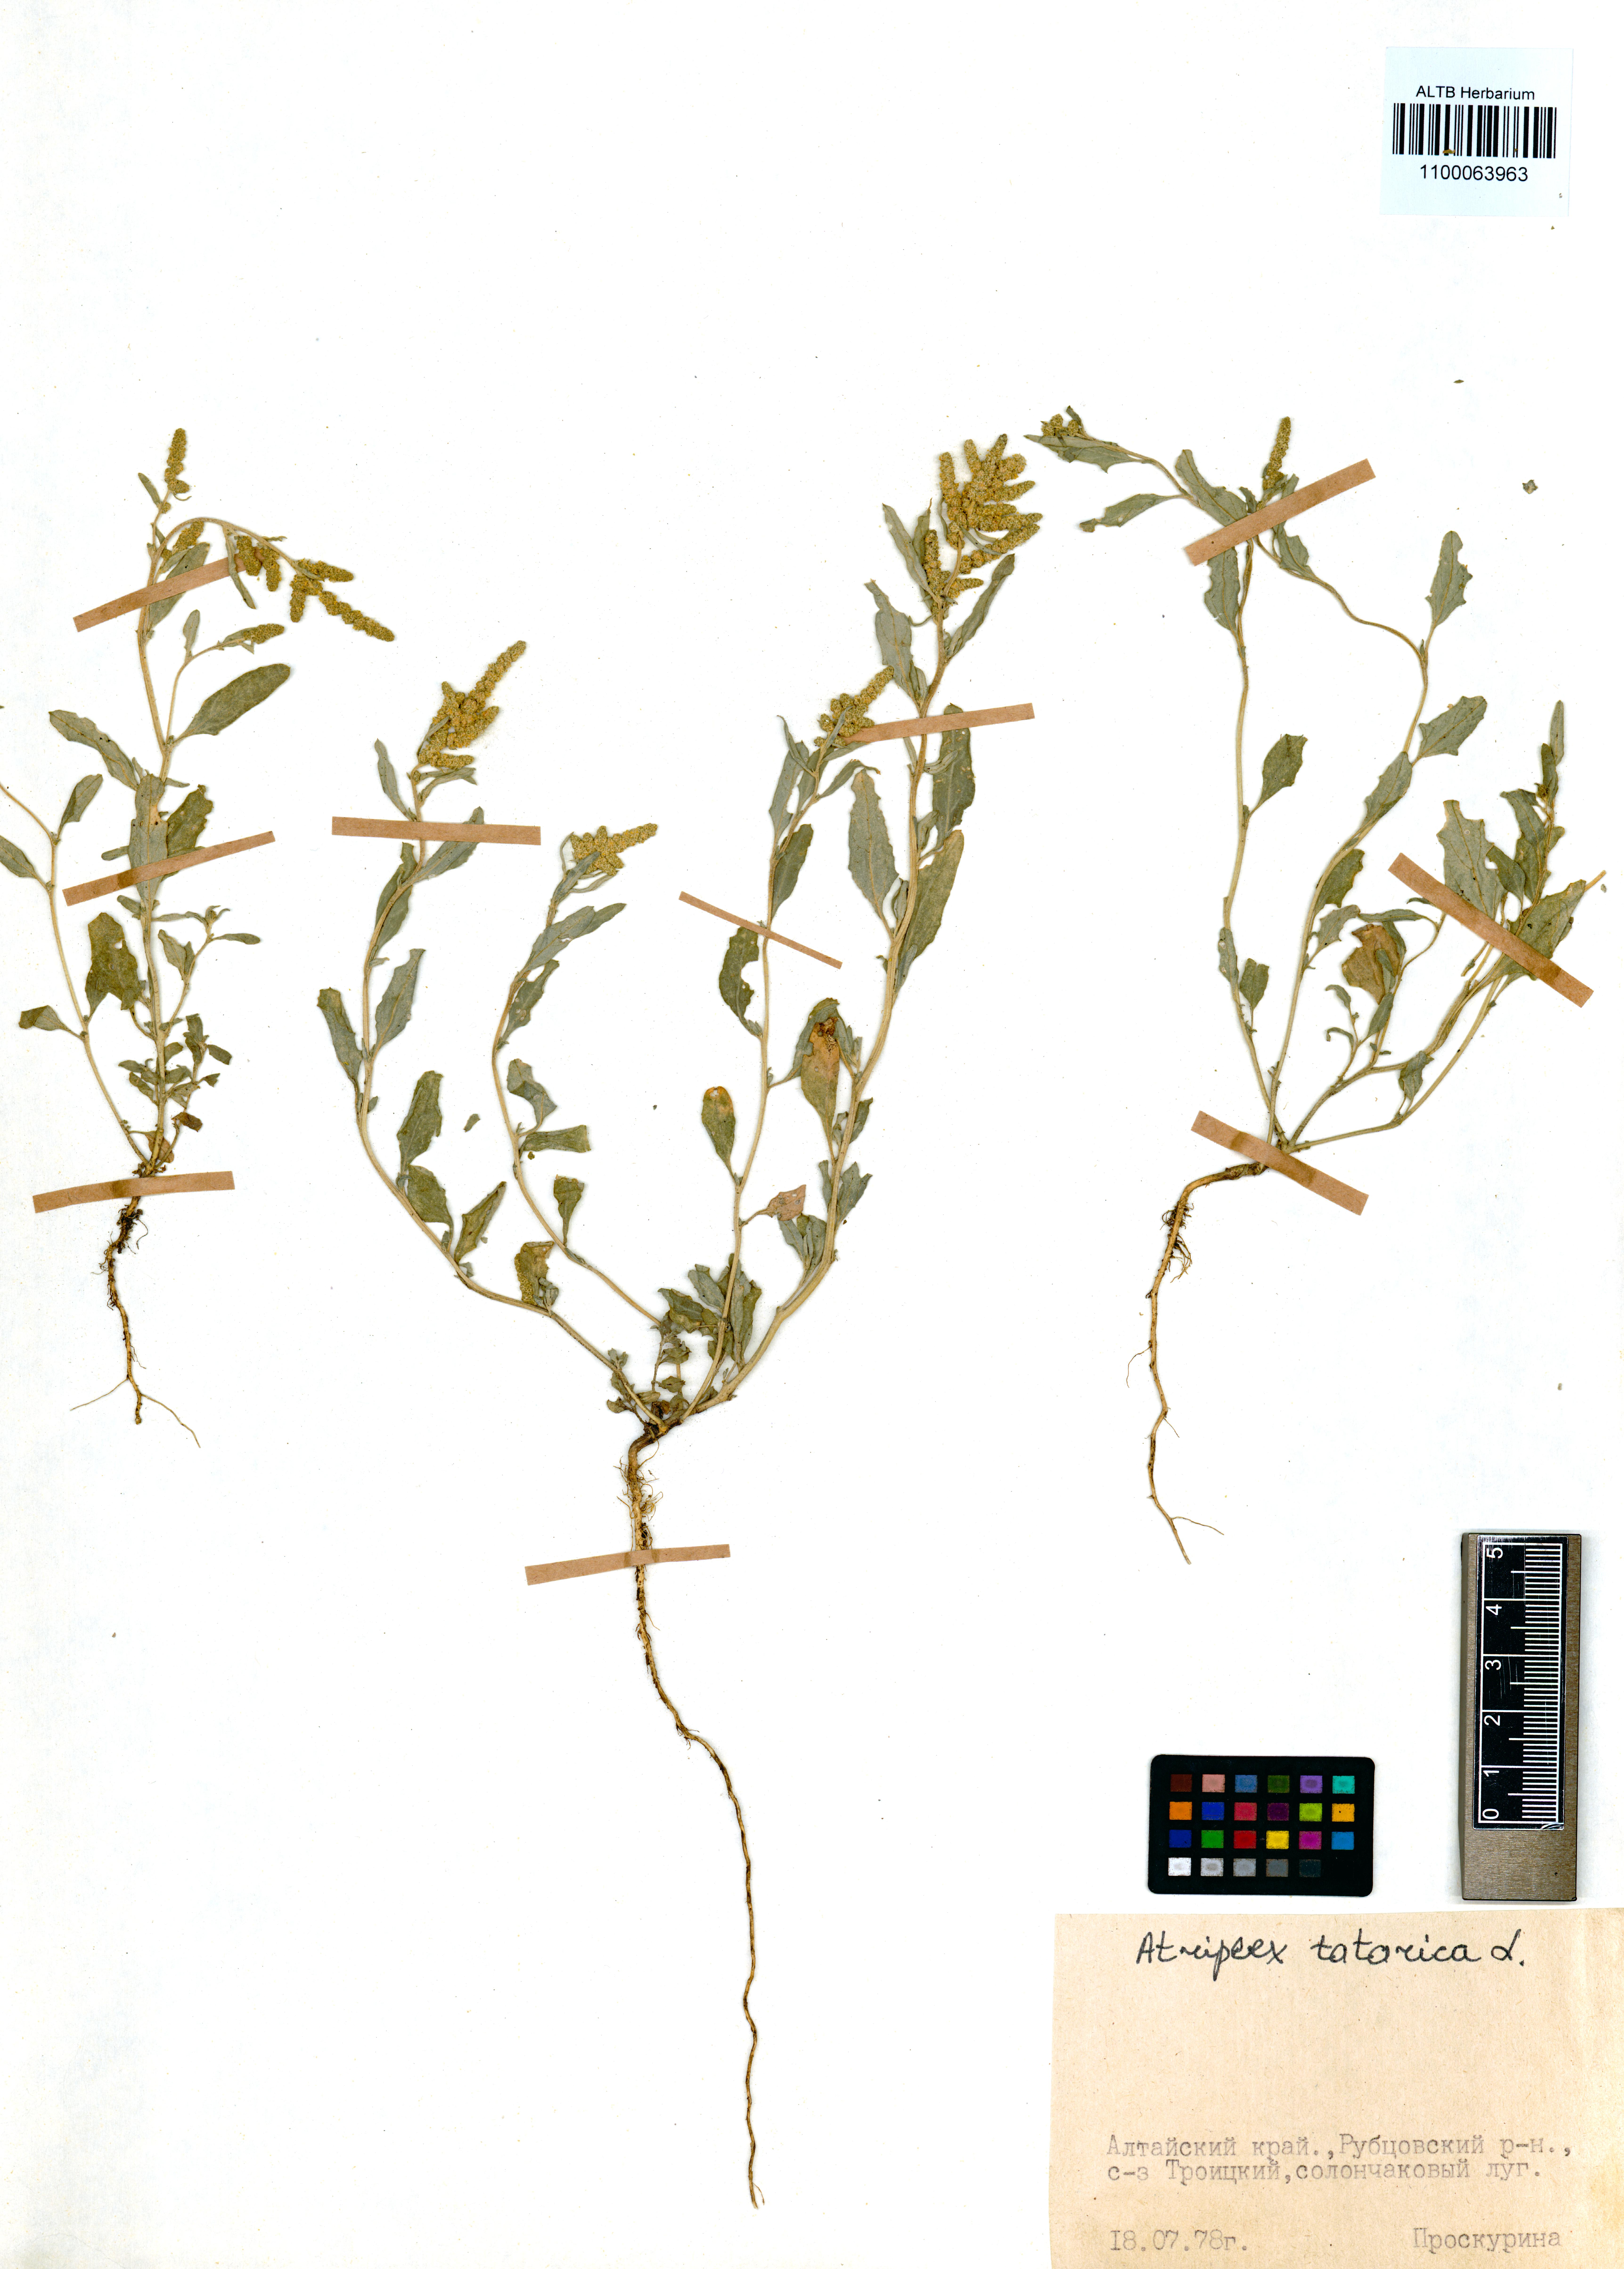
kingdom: Plantae
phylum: Tracheophyta
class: Magnoliopsida
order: Caryophyllales
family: Amaranthaceae
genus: Atriplex
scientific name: Atriplex tatarica
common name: Tatarian orache
